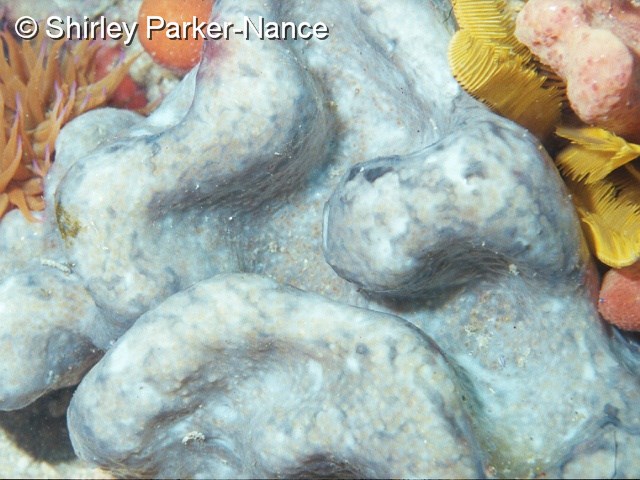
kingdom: Animalia
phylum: Chordata
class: Ascidiacea
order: Aplousobranchia
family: Pseudodistomidae
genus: Pseudodistoma
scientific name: Pseudodistoma
